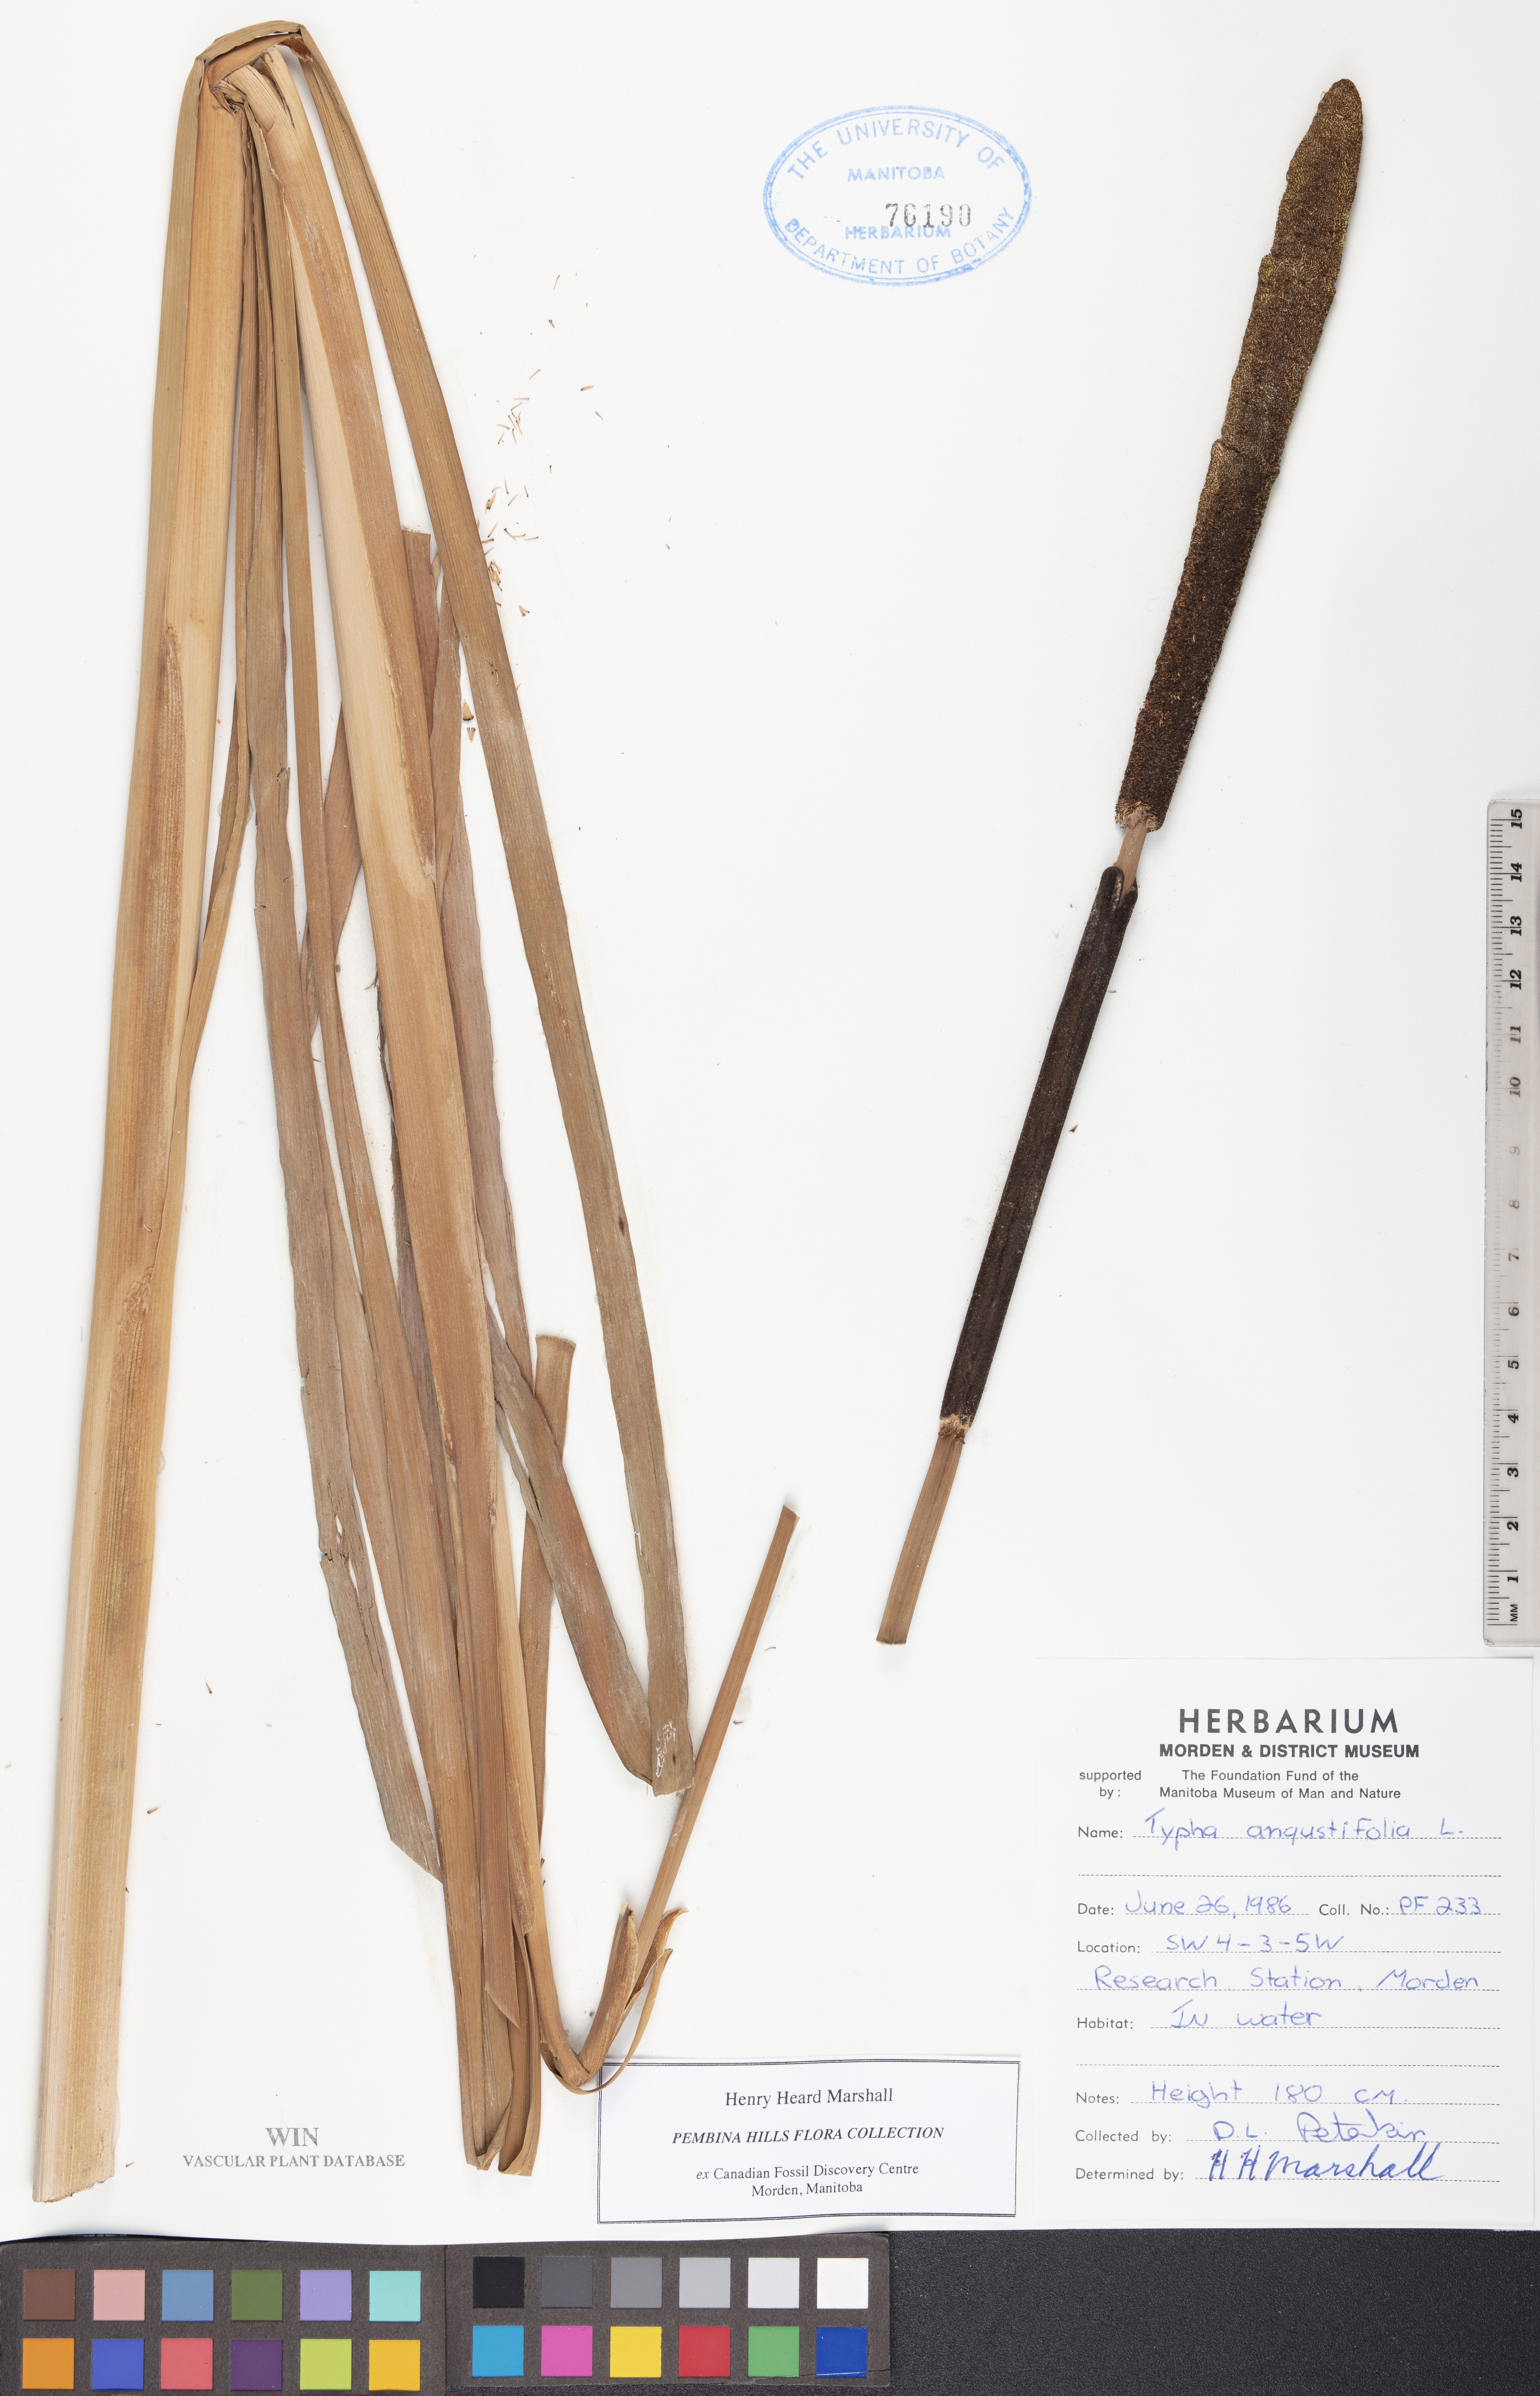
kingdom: Plantae
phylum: Tracheophyta
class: Liliopsida
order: Poales
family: Typhaceae
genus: Typha
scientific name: Typha angustifolia
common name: Lesser bulrush
